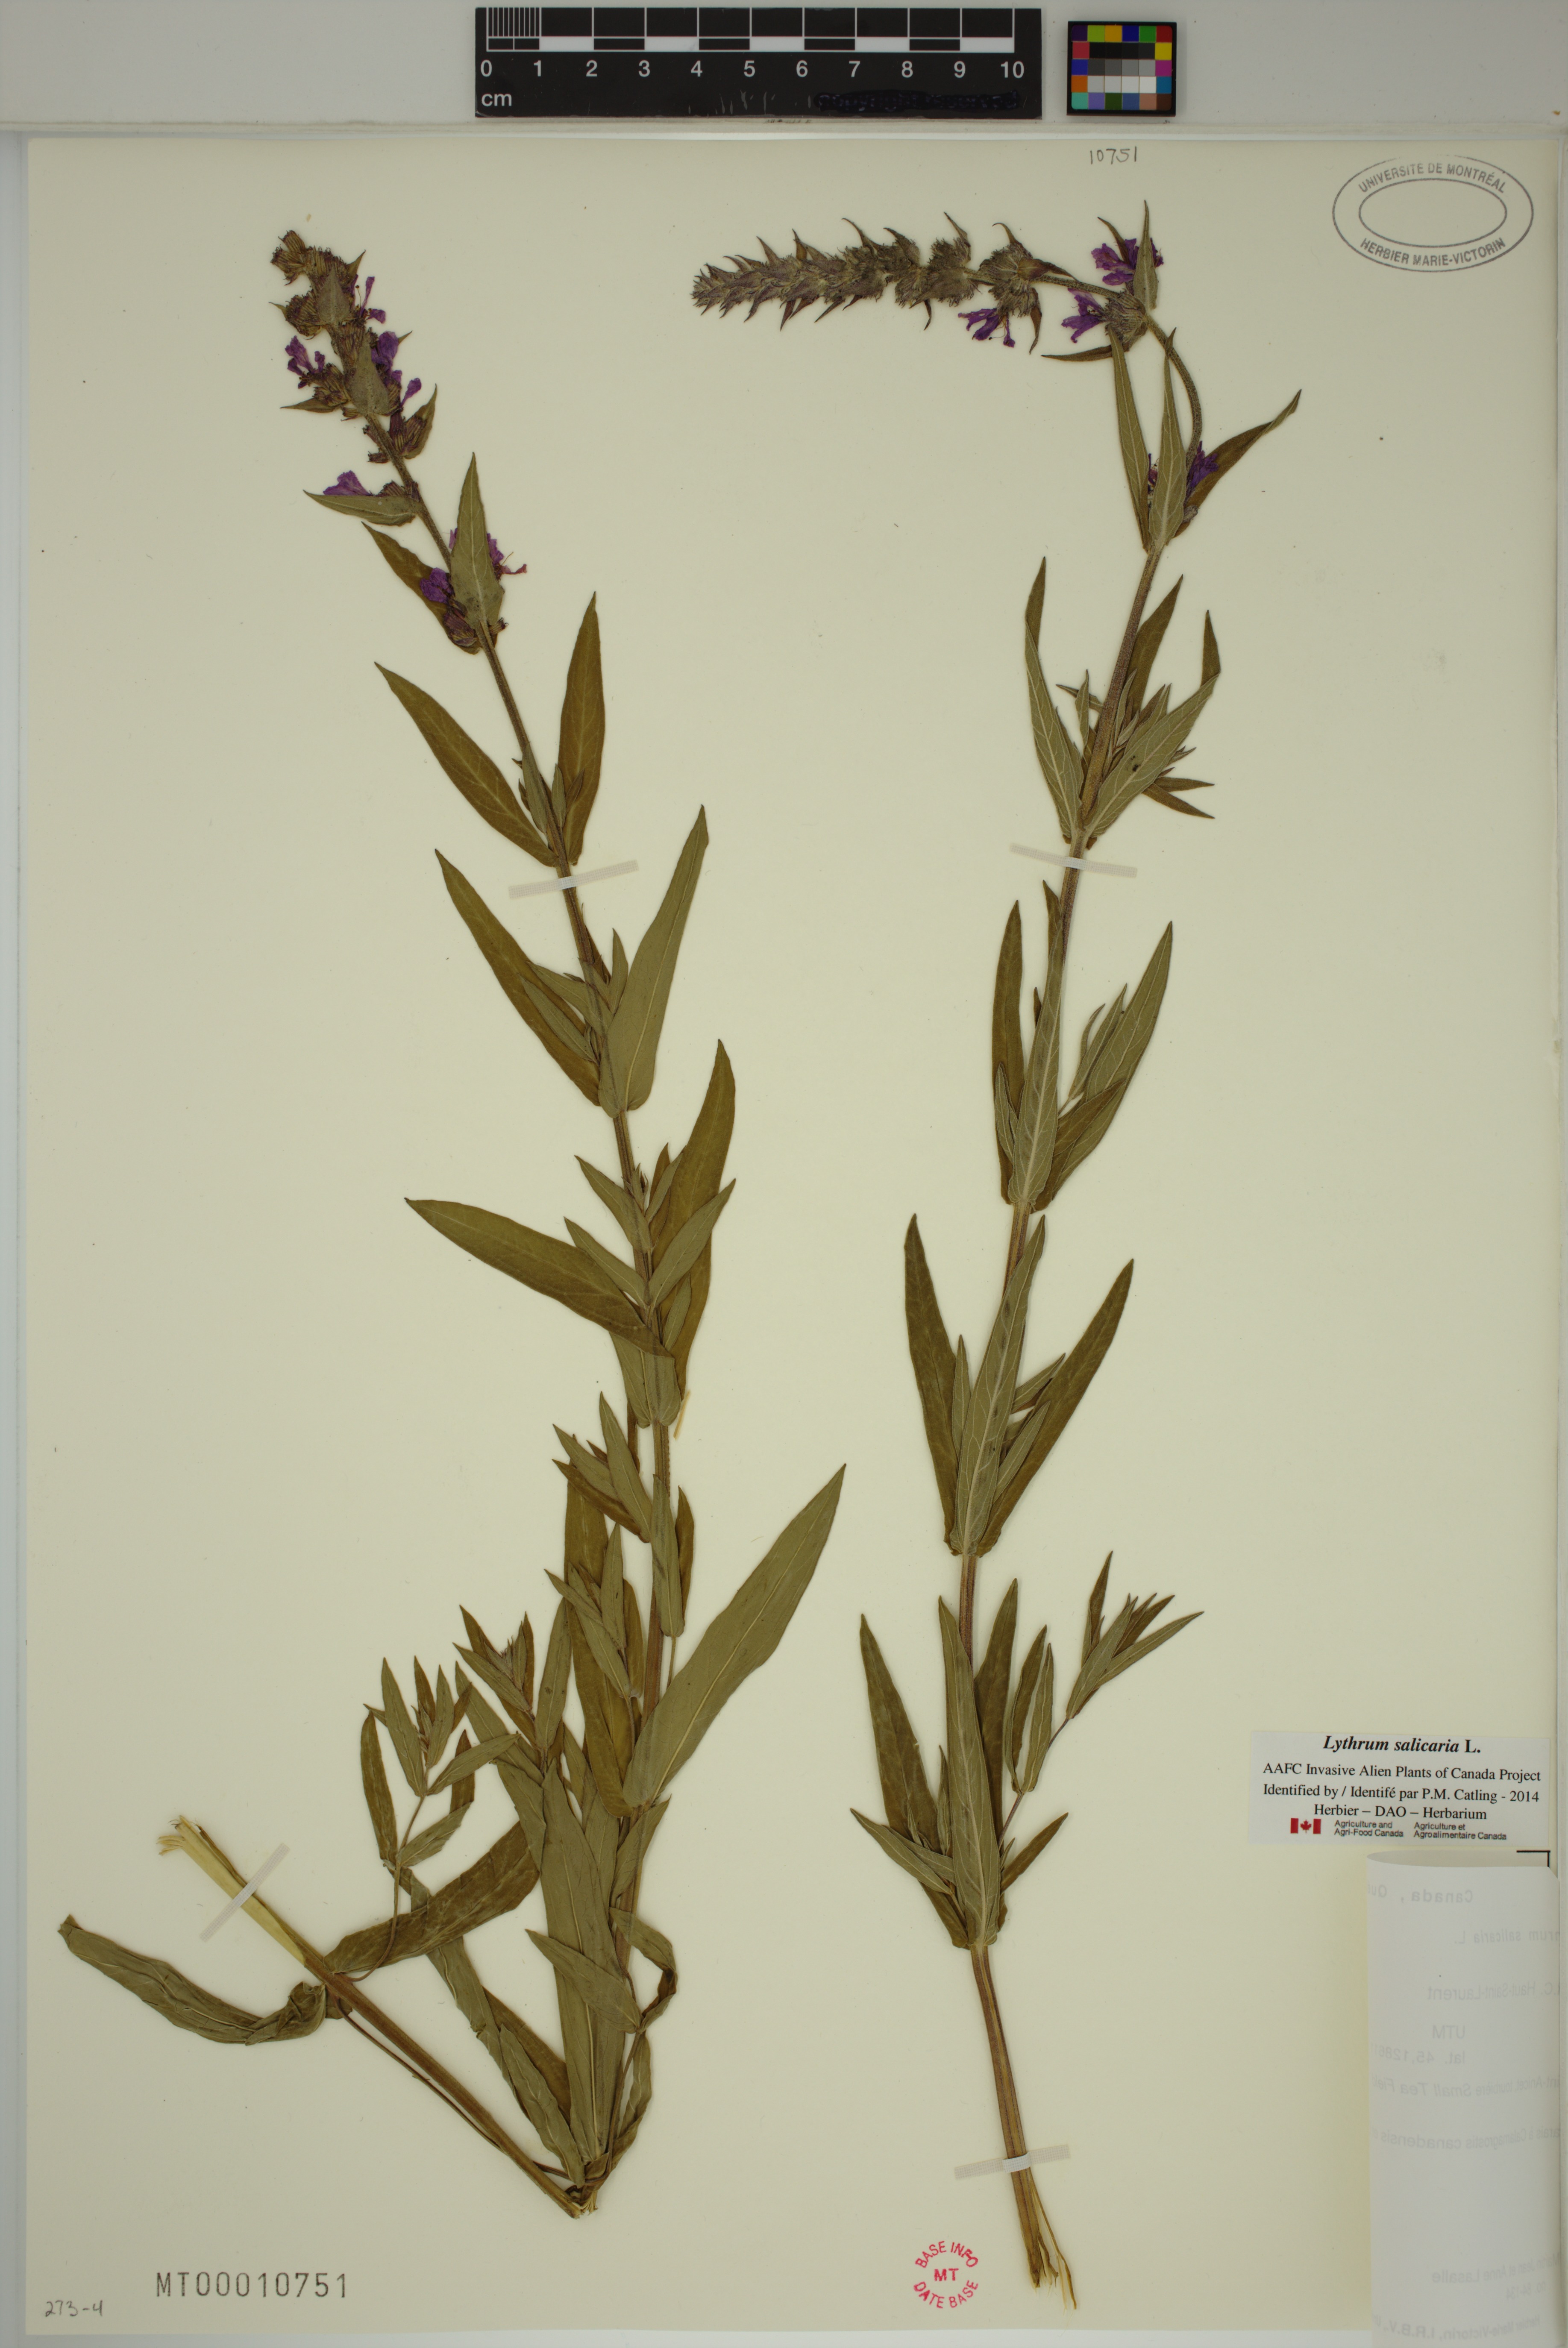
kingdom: Plantae
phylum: Tracheophyta
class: Magnoliopsida
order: Myrtales
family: Lythraceae
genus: Lythrum
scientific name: Lythrum salicaria
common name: Purple loosestrife
